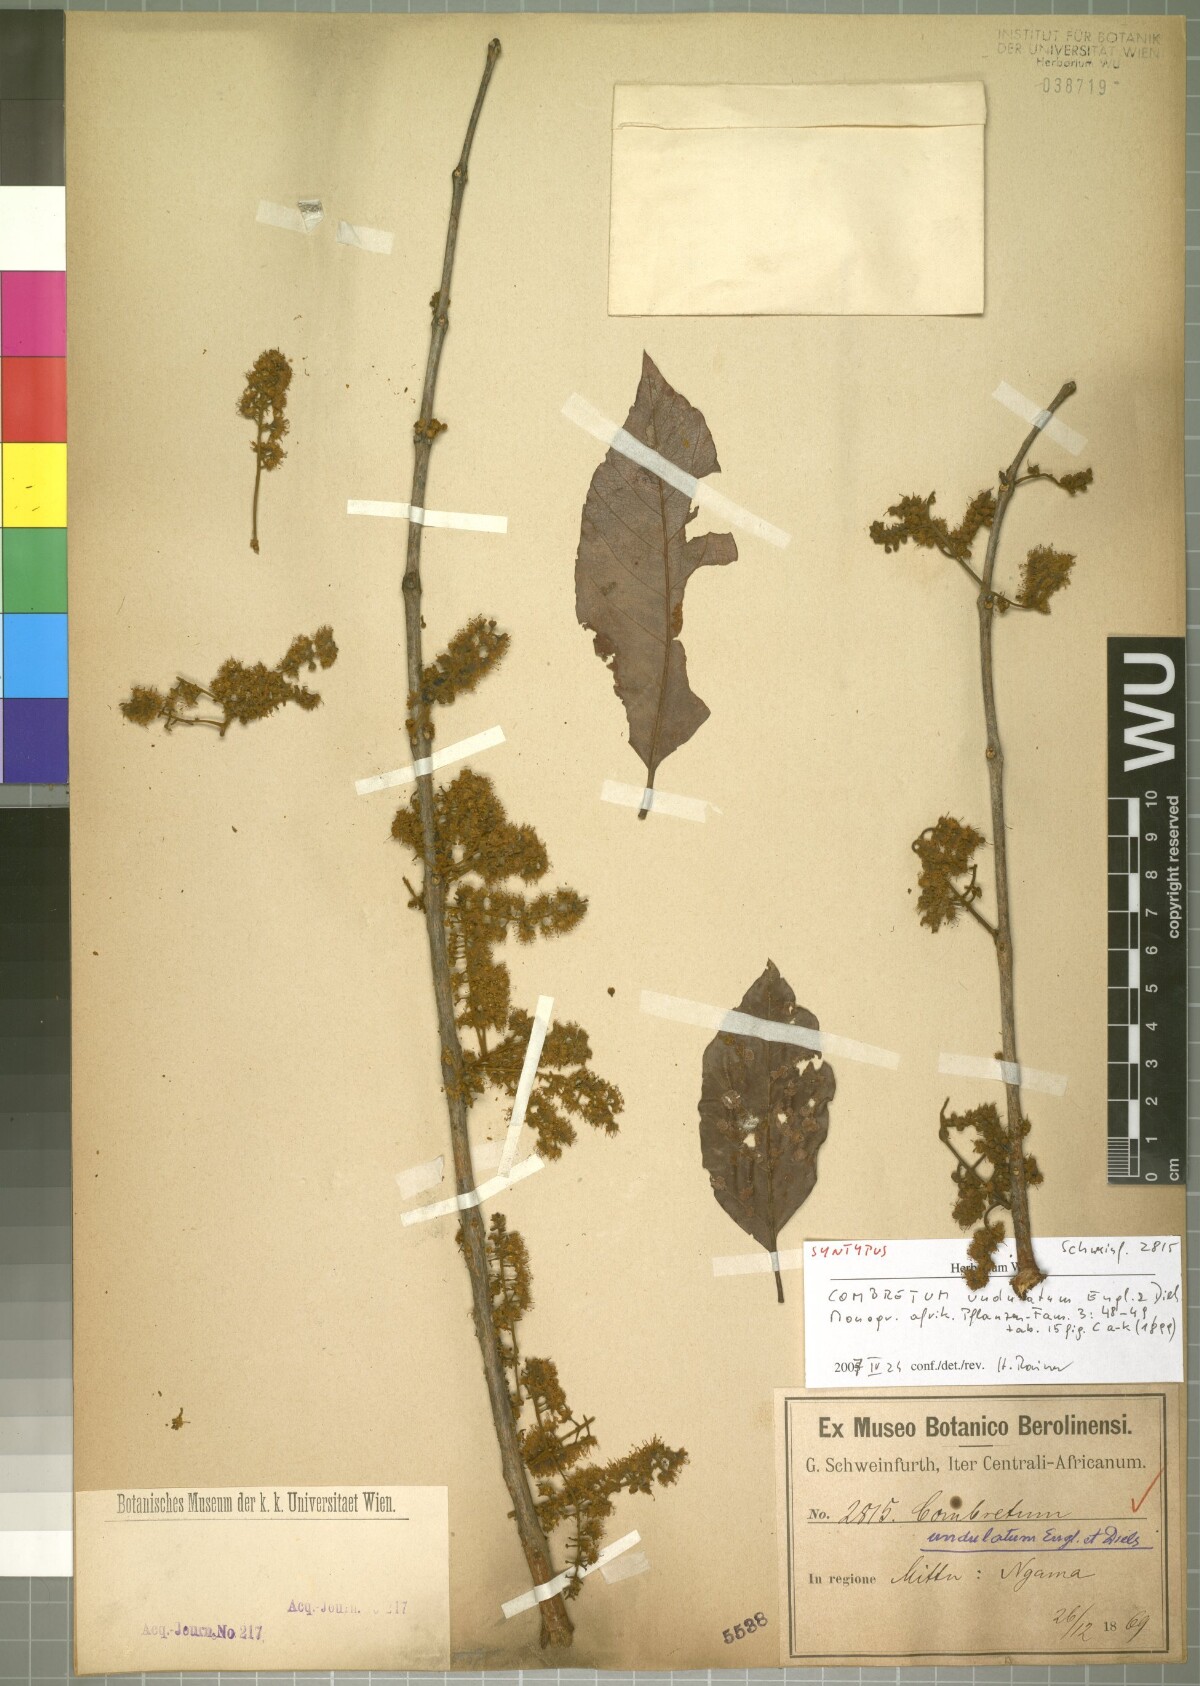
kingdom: Plantae
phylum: Tracheophyta
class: Magnoliopsida
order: Myrtales
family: Combretaceae
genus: Combretum
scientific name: Combretum adenogonium
